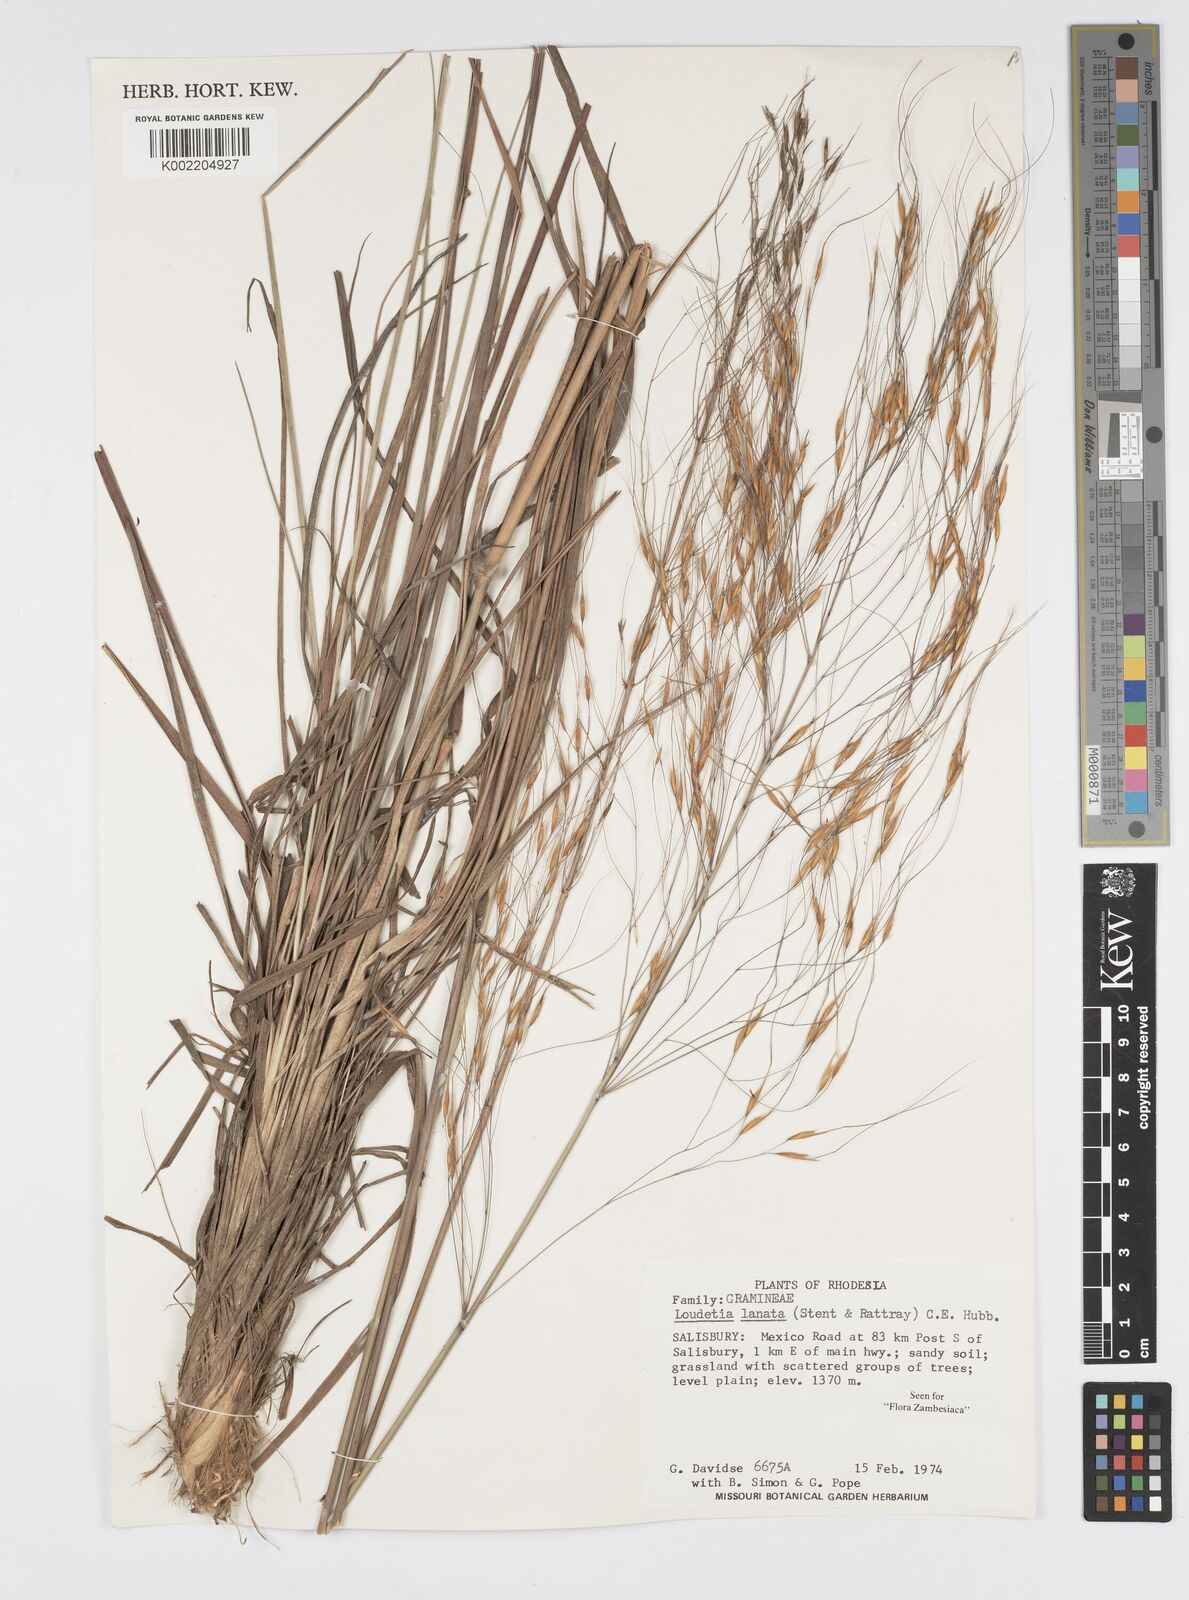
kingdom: Plantae
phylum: Tracheophyta
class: Liliopsida
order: Poales
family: Poaceae
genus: Loudetia
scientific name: Loudetia lanata
